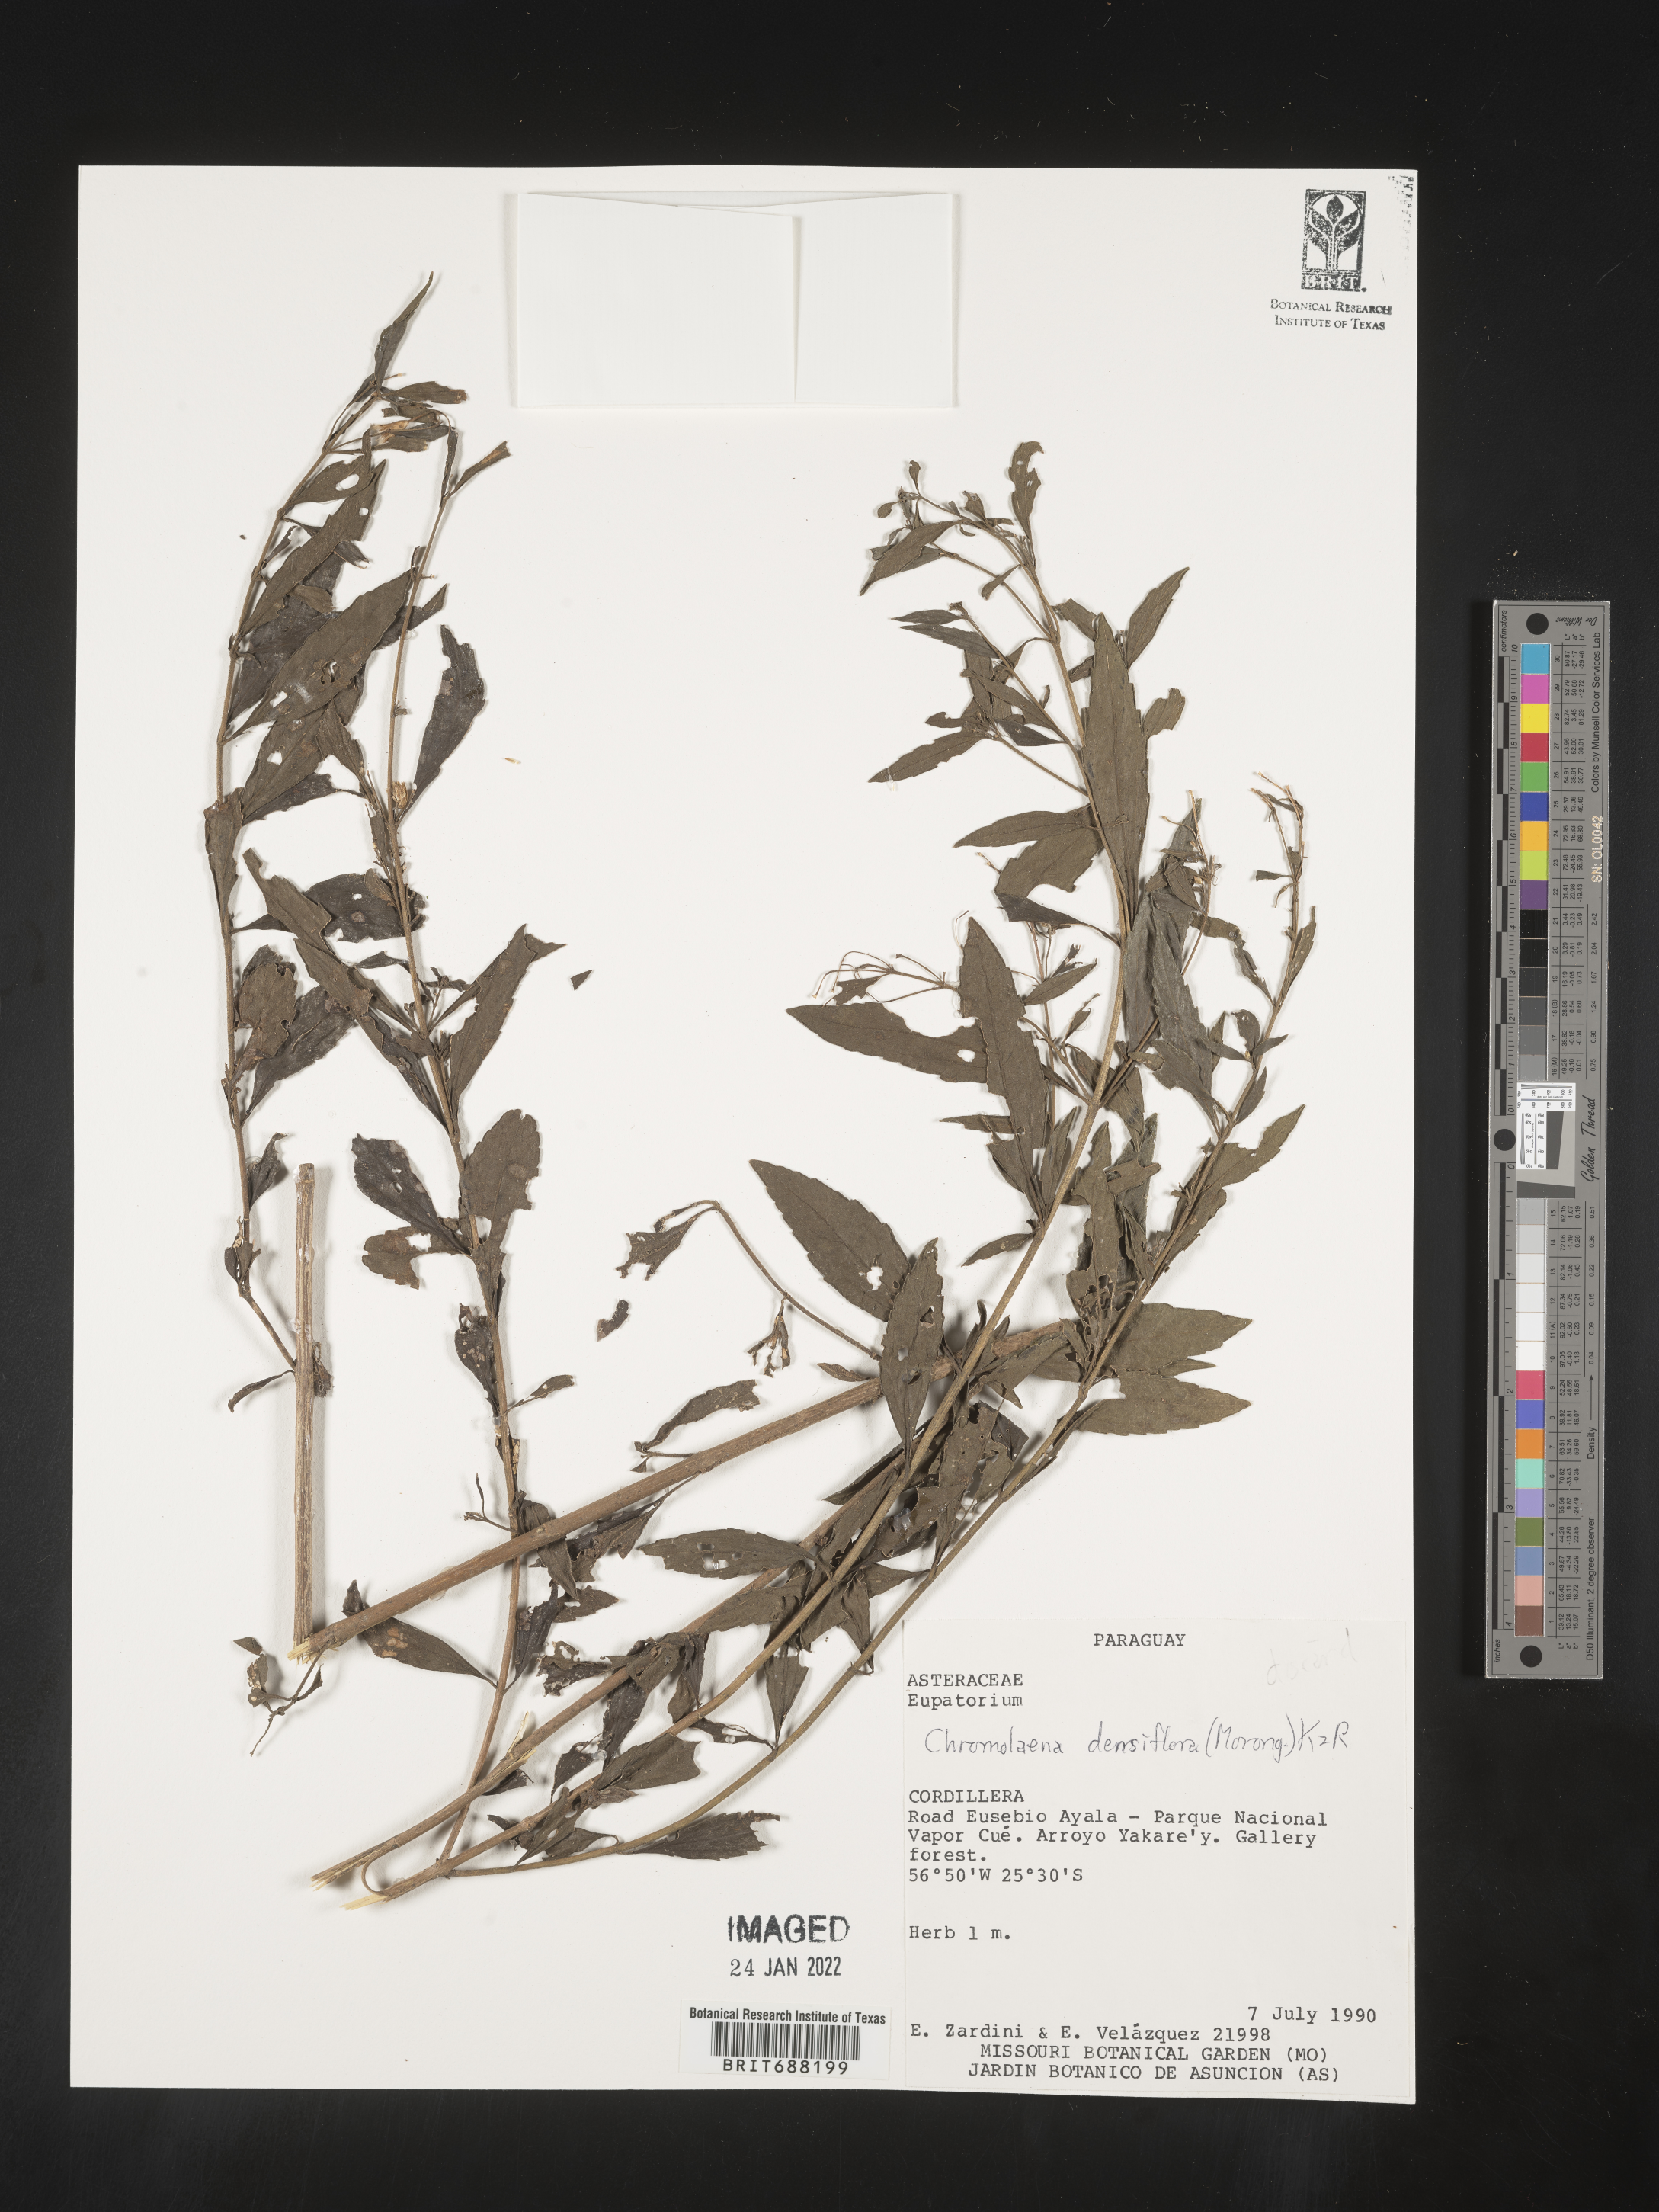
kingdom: Plantae
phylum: Tracheophyta
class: Magnoliopsida
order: Asterales
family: Asteraceae
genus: Chromolaena
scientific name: Chromolaena
